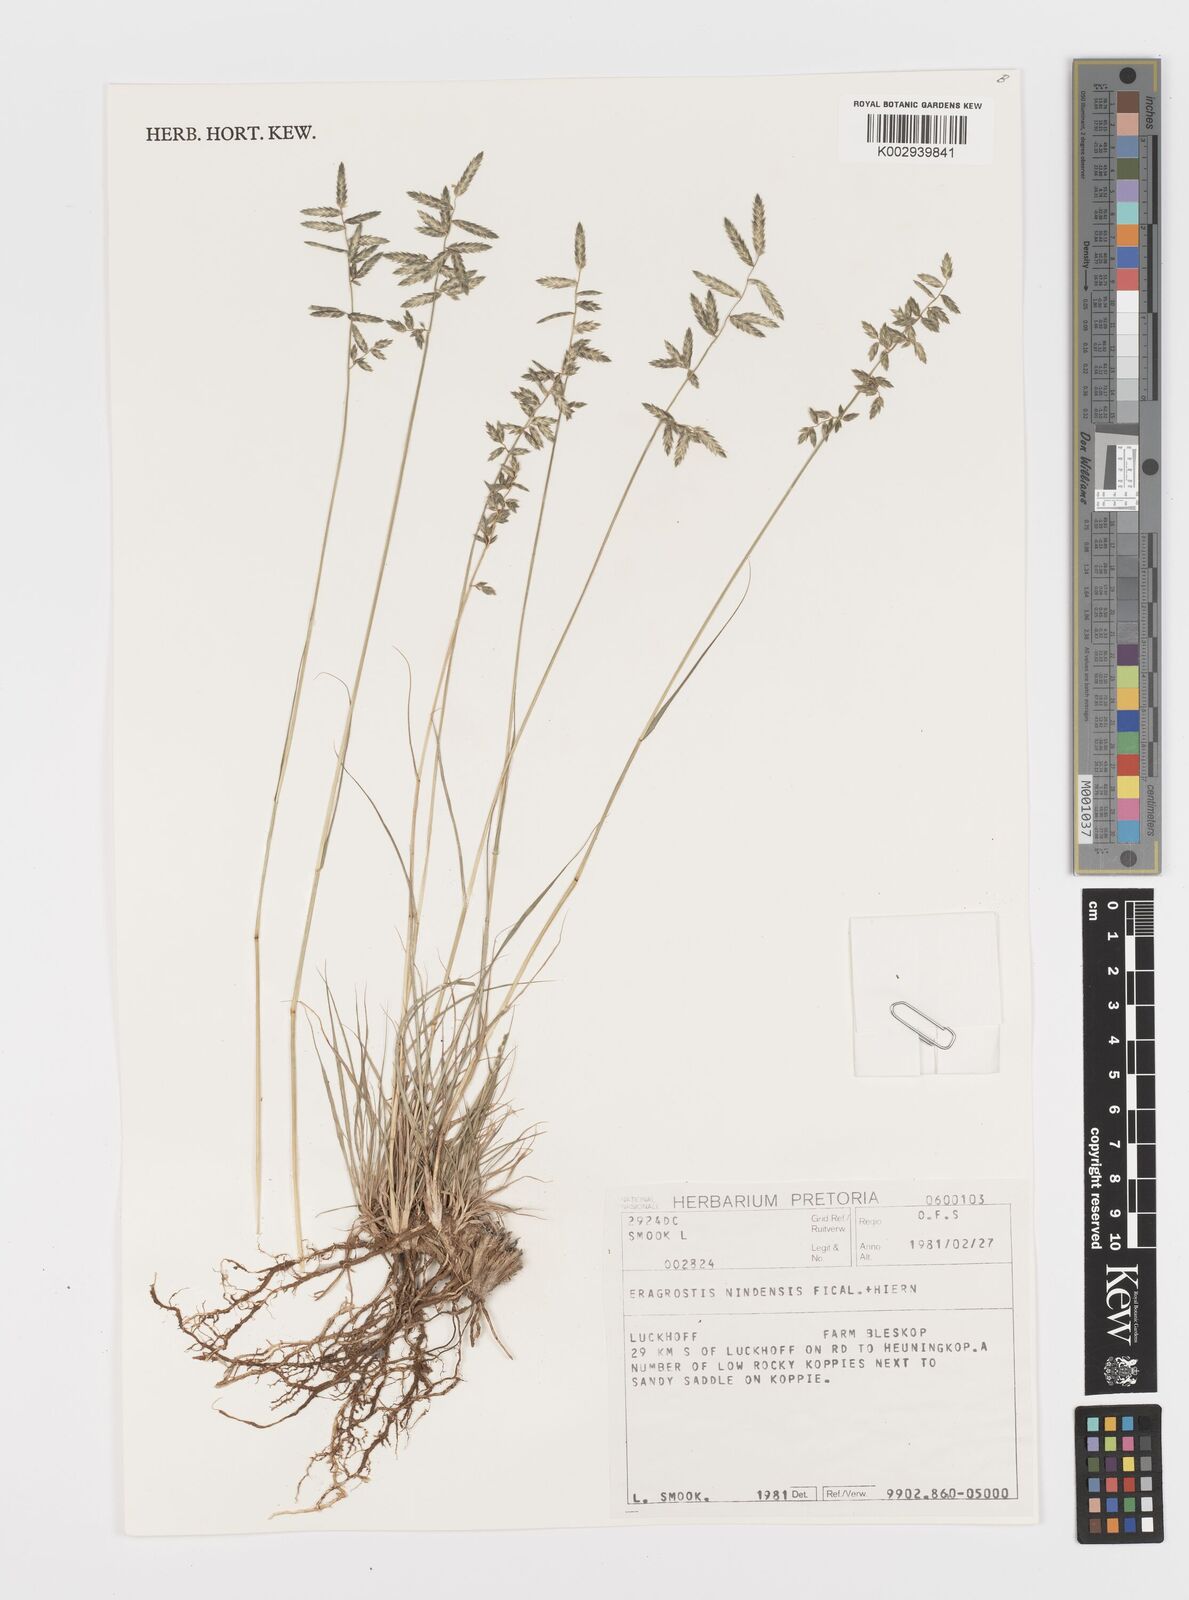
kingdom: Plantae
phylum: Tracheophyta
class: Liliopsida
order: Poales
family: Poaceae
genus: Eragrostis
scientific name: Eragrostis nindensis
